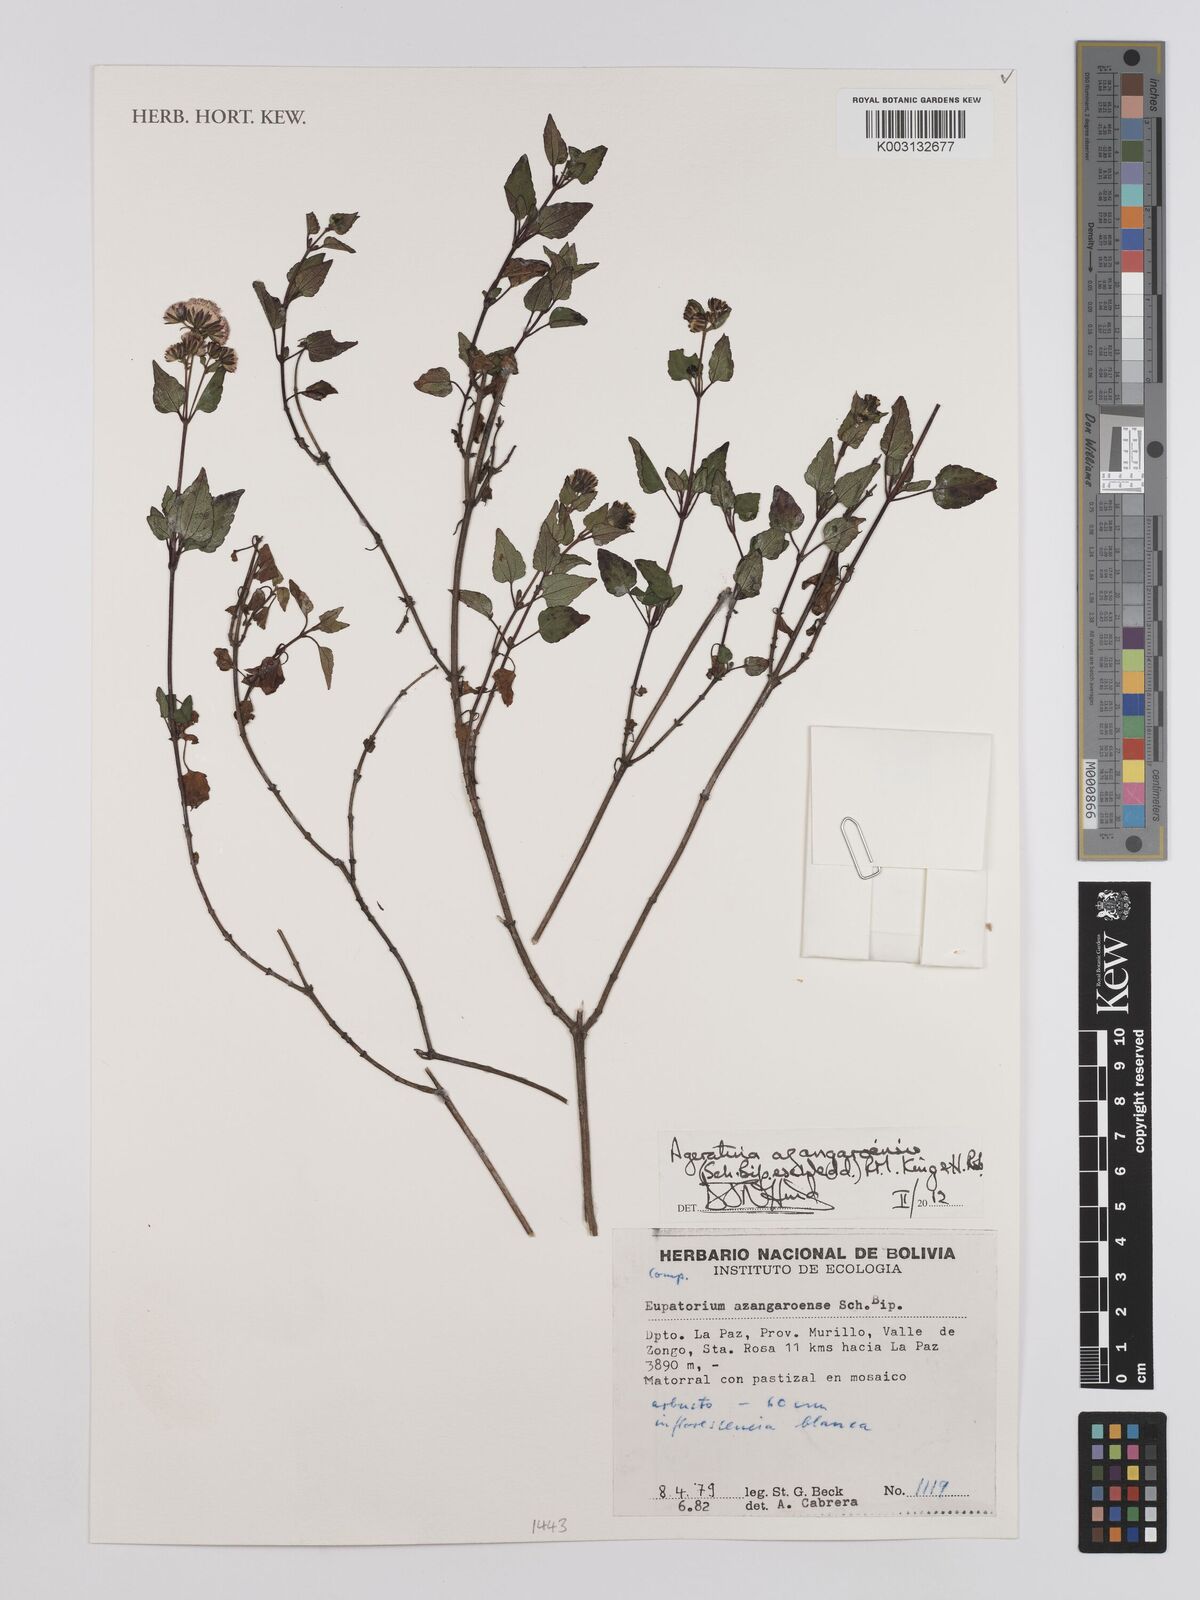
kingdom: Plantae
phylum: Tracheophyta
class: Magnoliopsida
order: Asterales
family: Asteraceae
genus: Ageratina
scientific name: Ageratina glechonophylla
